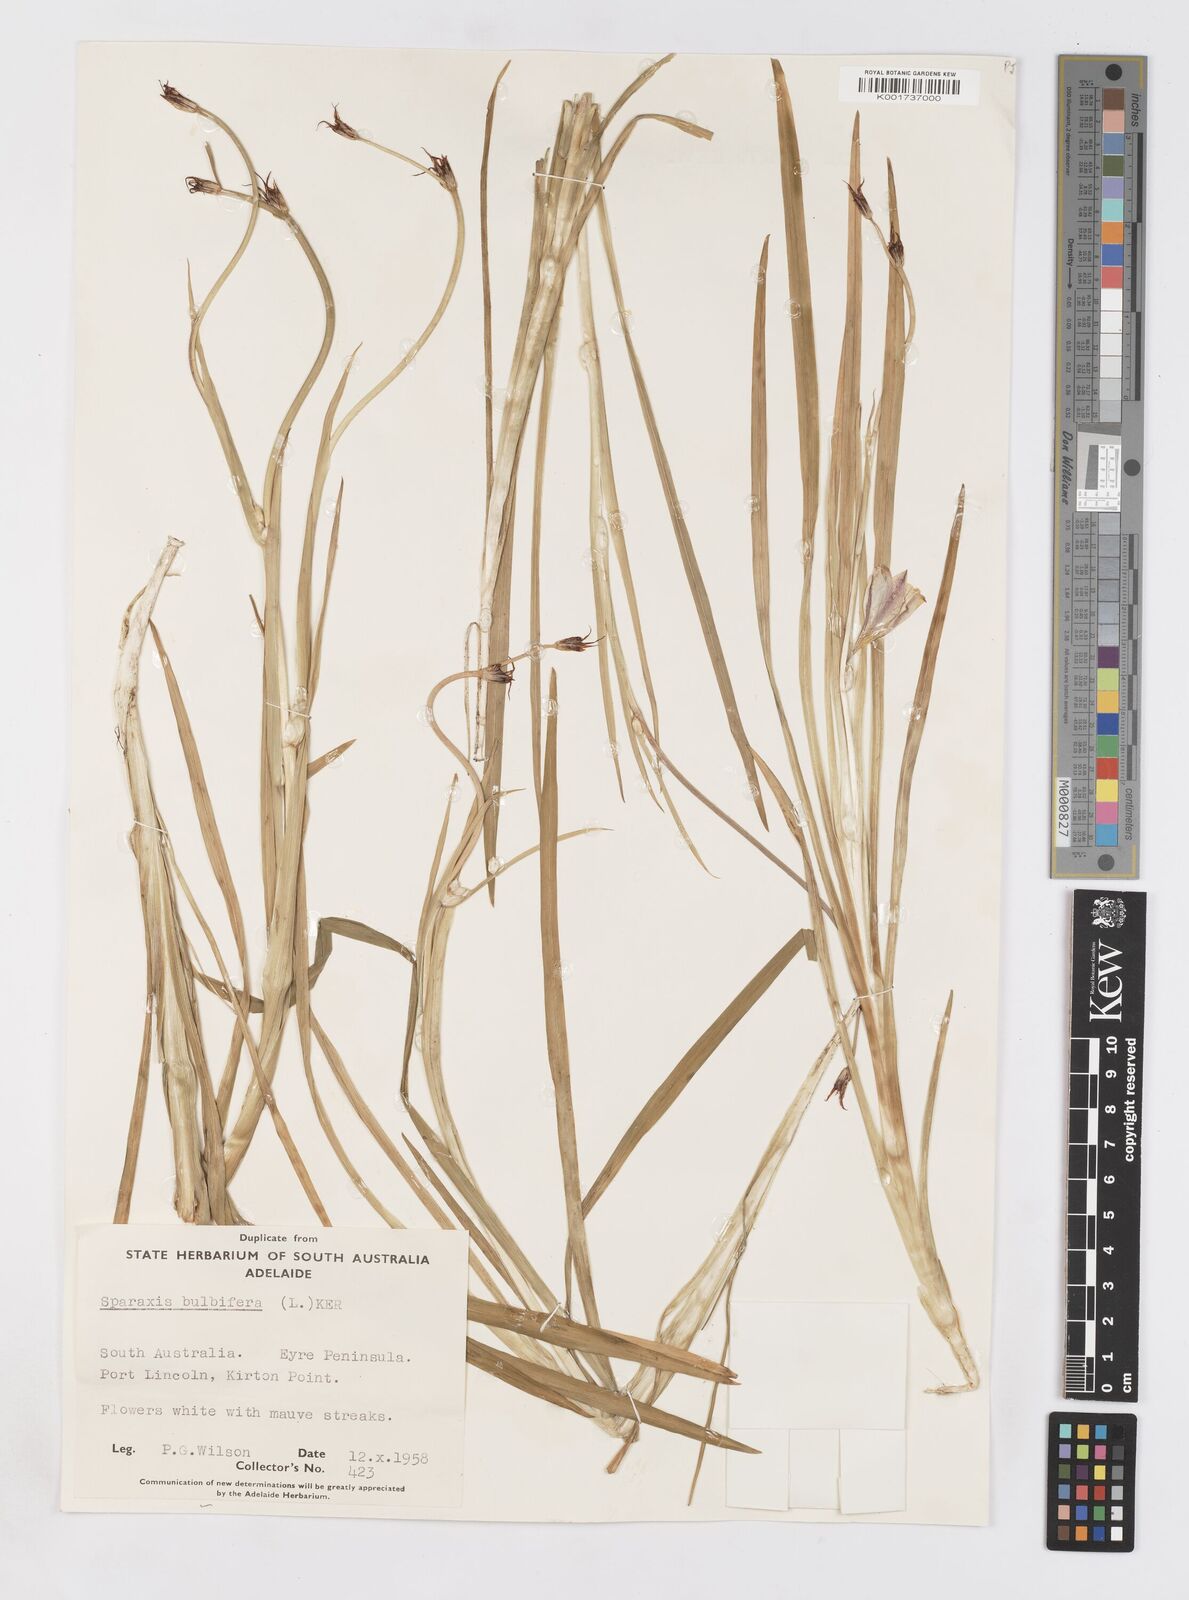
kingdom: Plantae
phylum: Tracheophyta
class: Liliopsida
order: Asparagales
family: Iridaceae
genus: Sparaxis
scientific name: Sparaxis bulbifera
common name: Harlequin-flower
